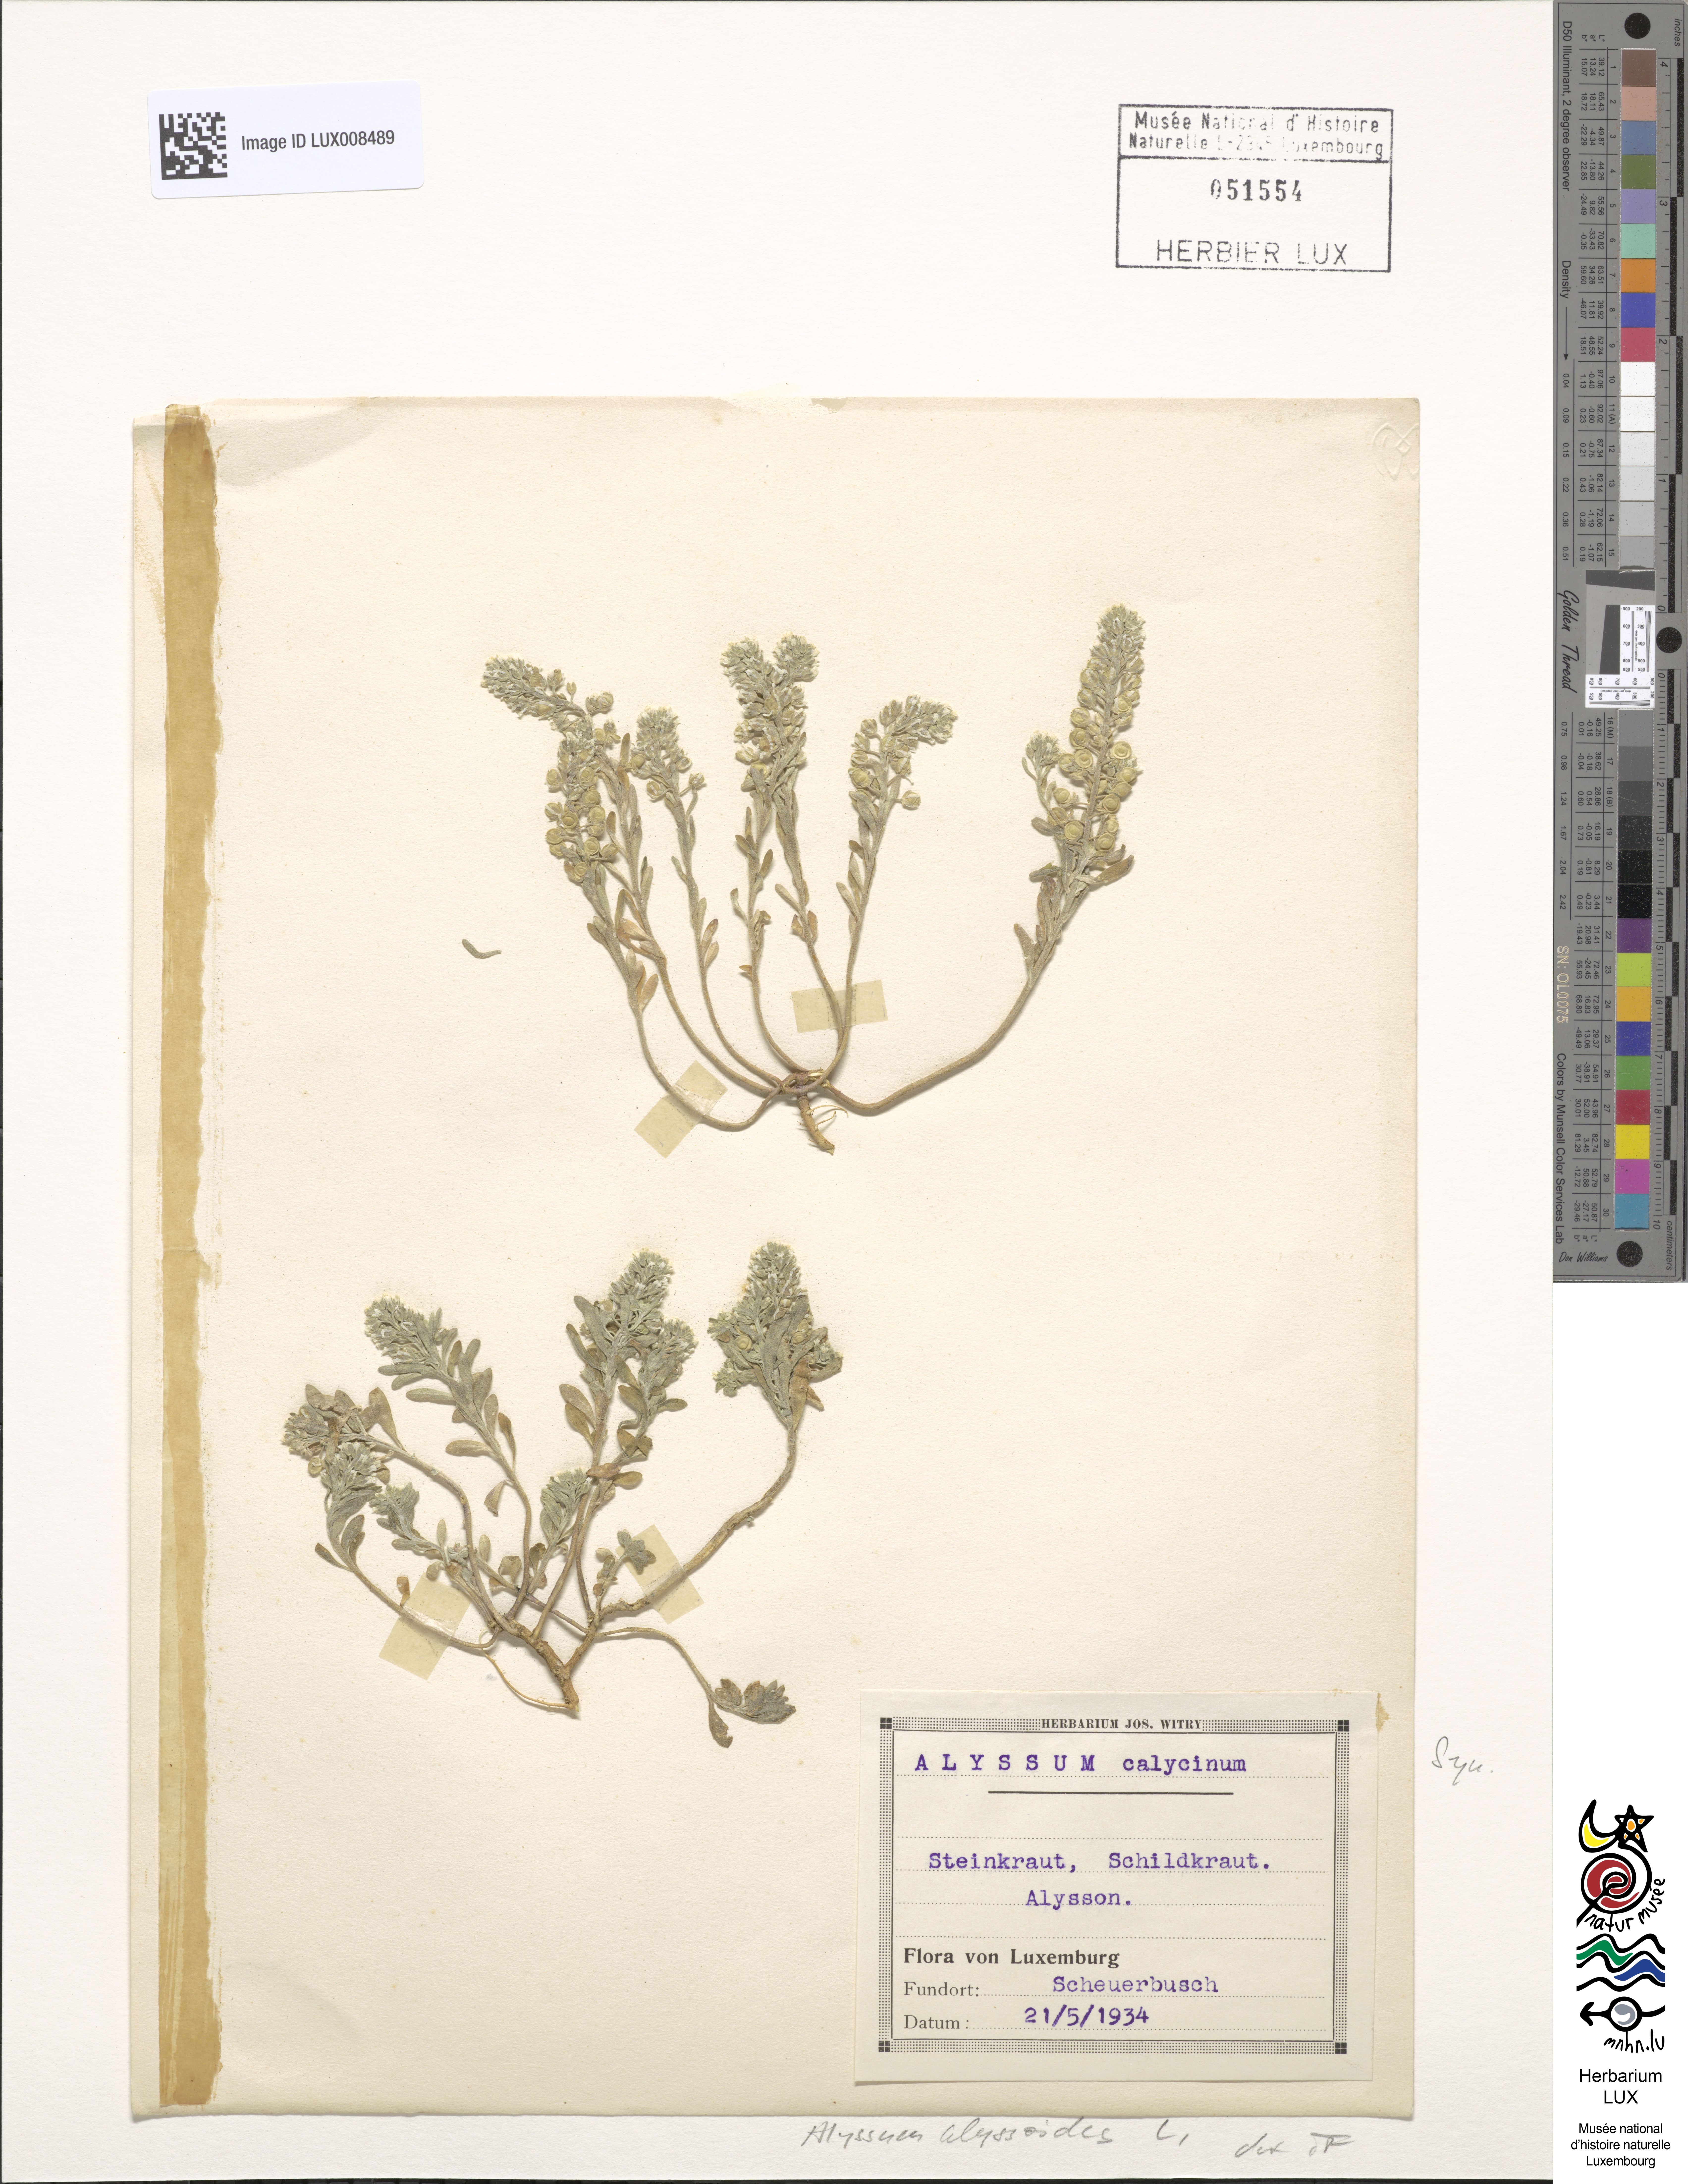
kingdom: Plantae
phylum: Tracheophyta
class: Magnoliopsida
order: Brassicales
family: Brassicaceae
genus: Alyssum
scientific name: Alyssum alyssoides
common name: Small alison
